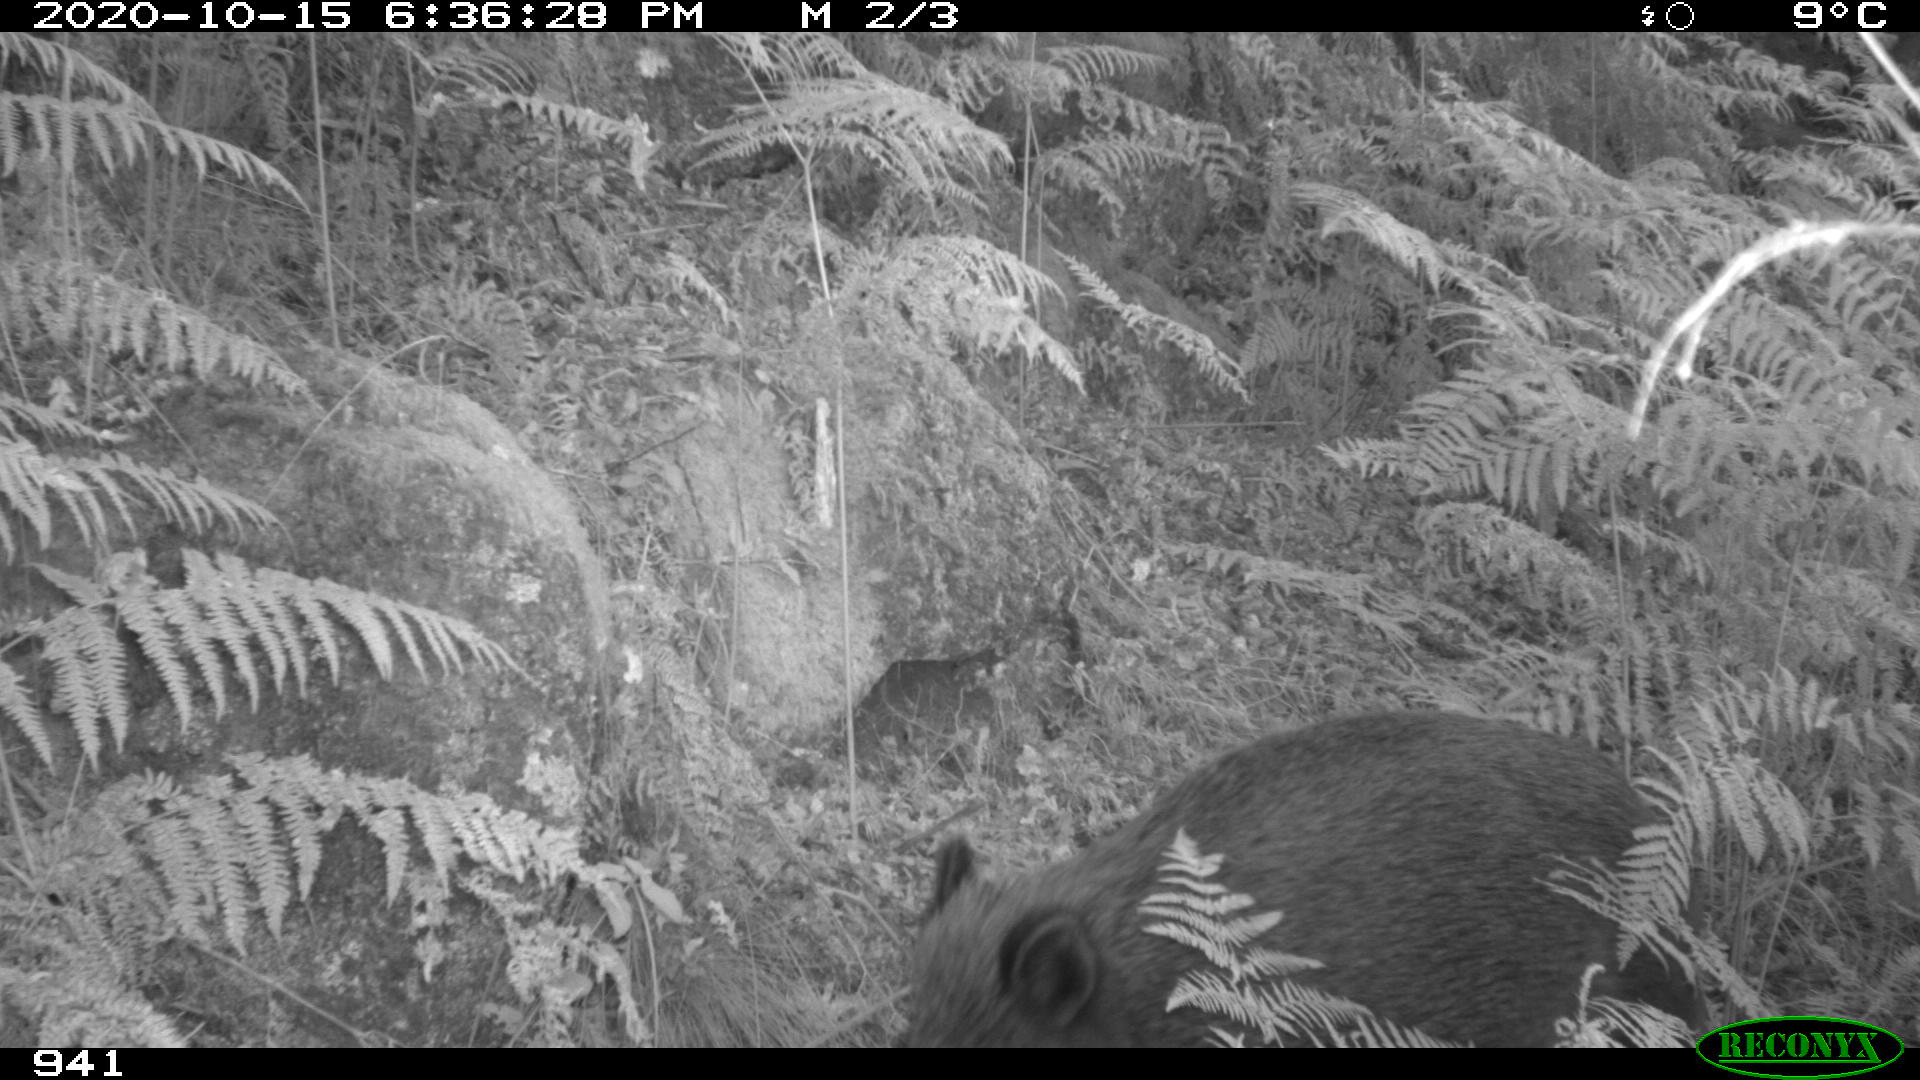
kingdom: Animalia
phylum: Chordata
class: Mammalia
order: Artiodactyla
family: Suidae
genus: Sus
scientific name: Sus scrofa
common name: Wild boar
